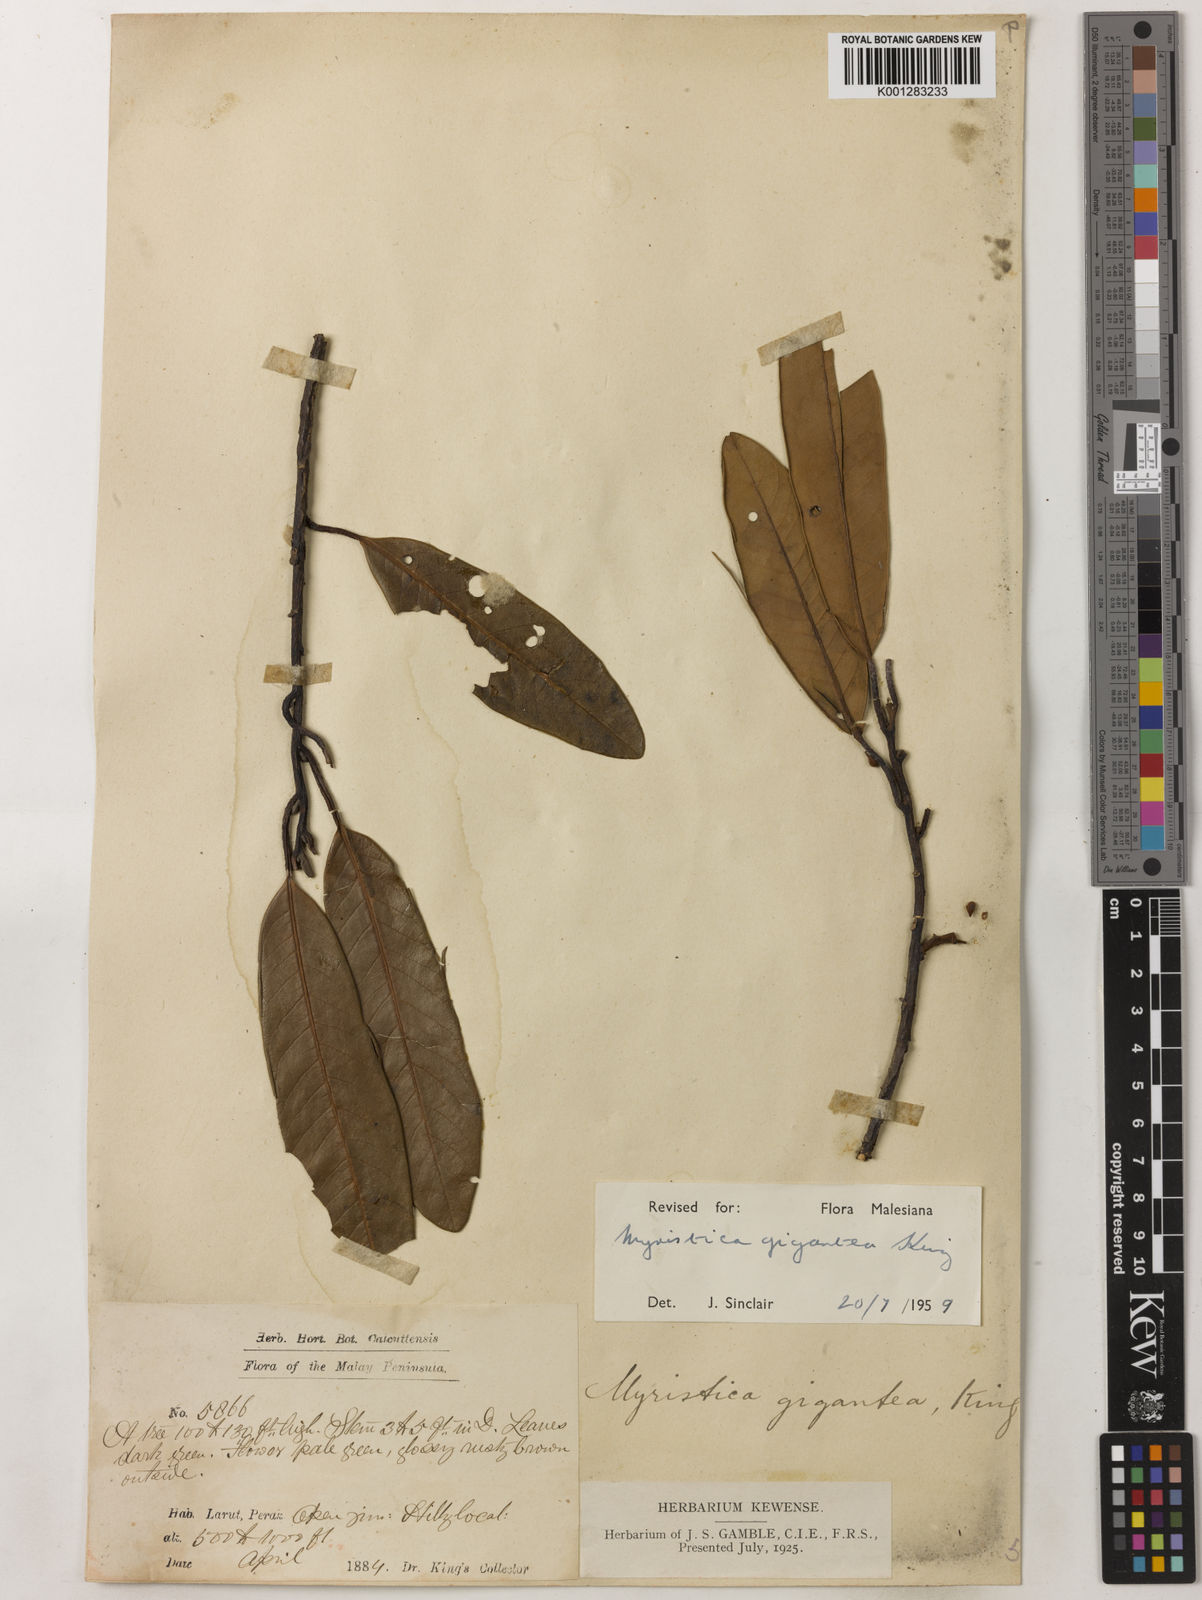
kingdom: Plantae
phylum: Tracheophyta
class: Magnoliopsida
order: Magnoliales
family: Myristicaceae
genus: Myristica
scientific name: Myristica gigantea
